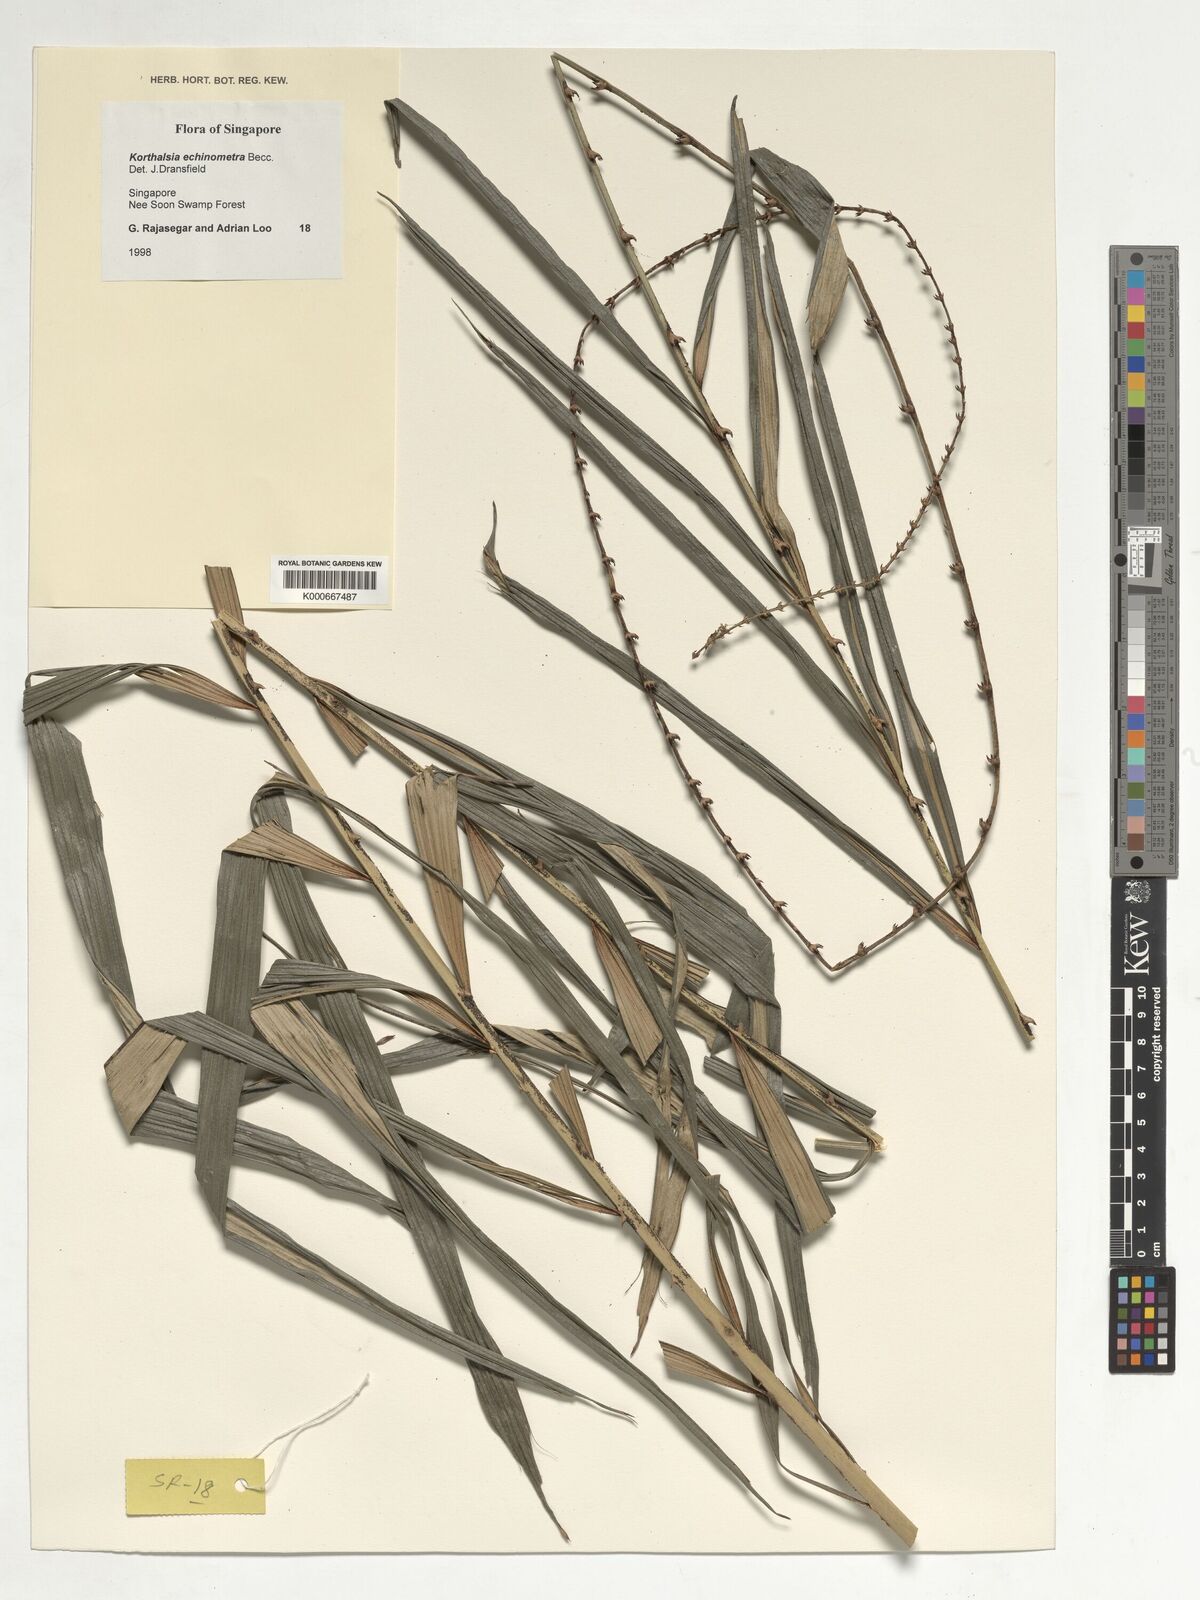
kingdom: Plantae
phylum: Tracheophyta
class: Liliopsida
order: Arecales
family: Arecaceae
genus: Korthalsia
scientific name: Korthalsia echinometra
